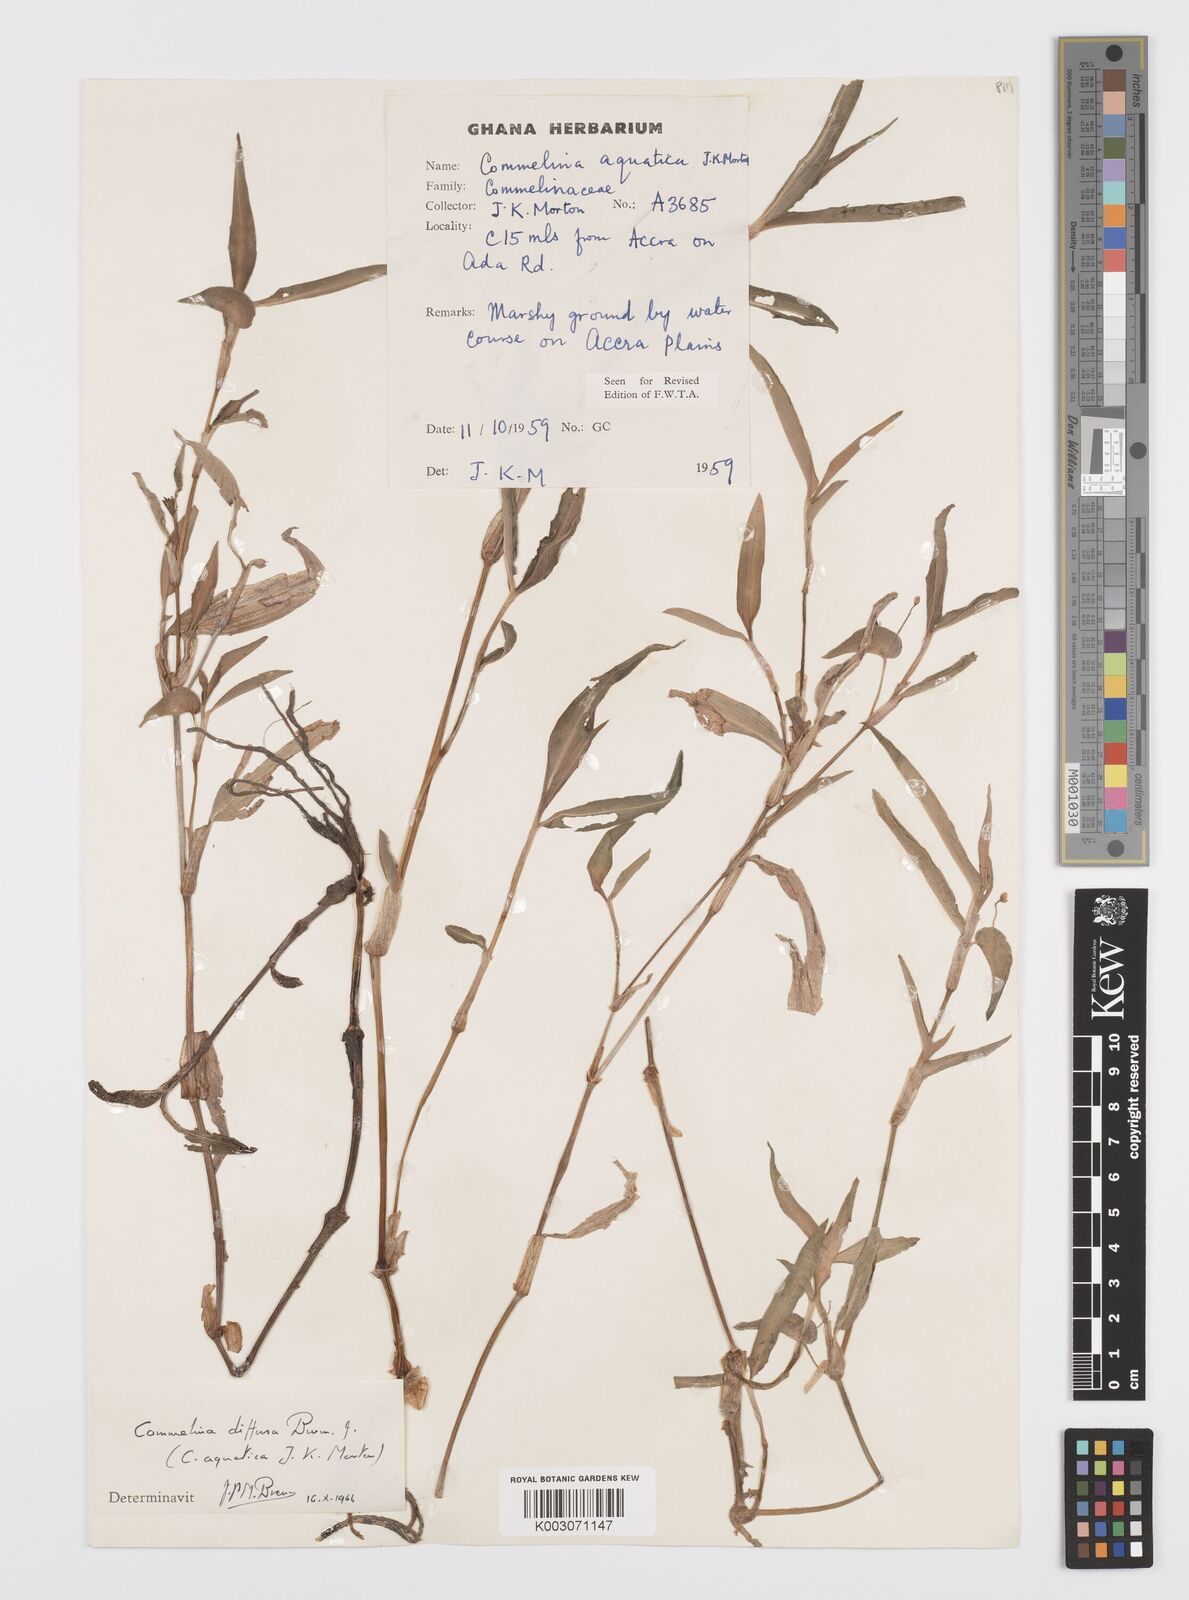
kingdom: Plantae
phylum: Tracheophyta
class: Liliopsida
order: Commelinales
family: Commelinaceae
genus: Commelina
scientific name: Commelina diffusa
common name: Climbing dayflower
